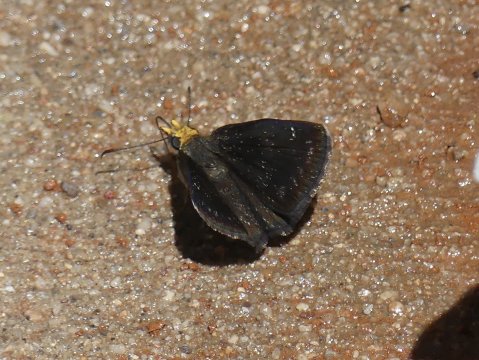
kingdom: Animalia
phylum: Arthropoda
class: Insecta
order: Lepidoptera
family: Hesperiidae
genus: Staphylus
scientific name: Staphylus ceos
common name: Golden-headed Scallopwing
